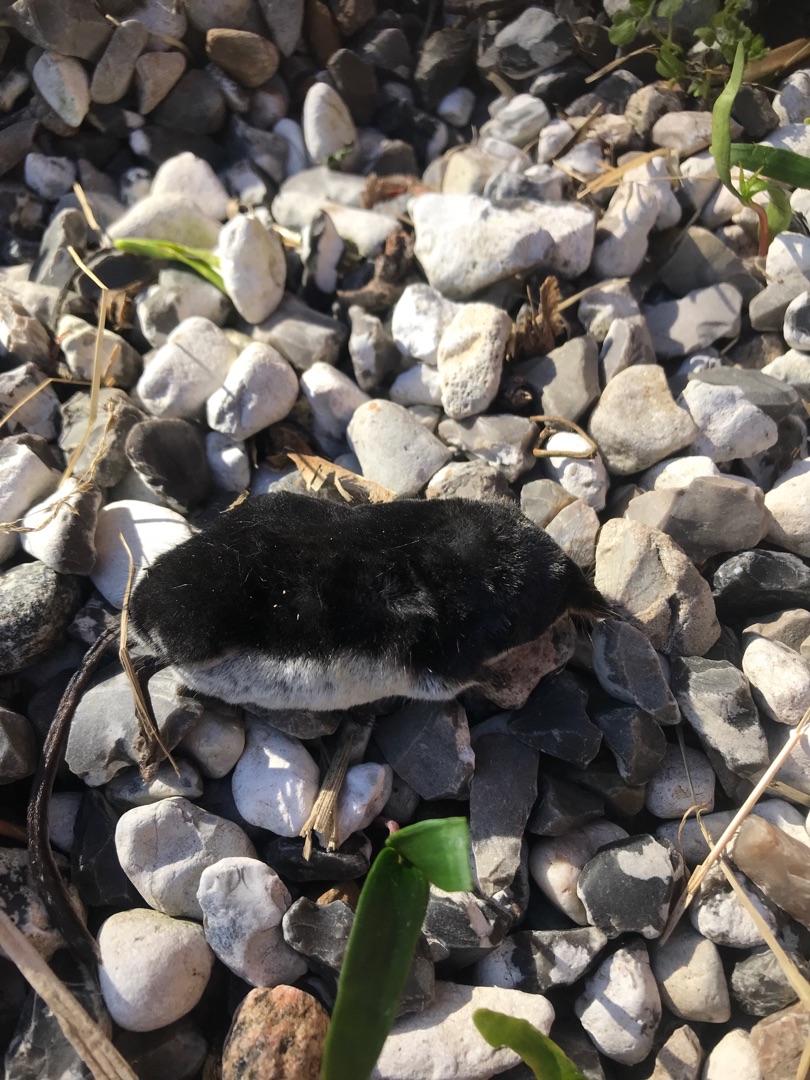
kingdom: Animalia
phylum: Chordata
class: Mammalia
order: Soricomorpha
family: Soricidae
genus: Neomys
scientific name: Neomys fodiens
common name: Vandspidsmus
